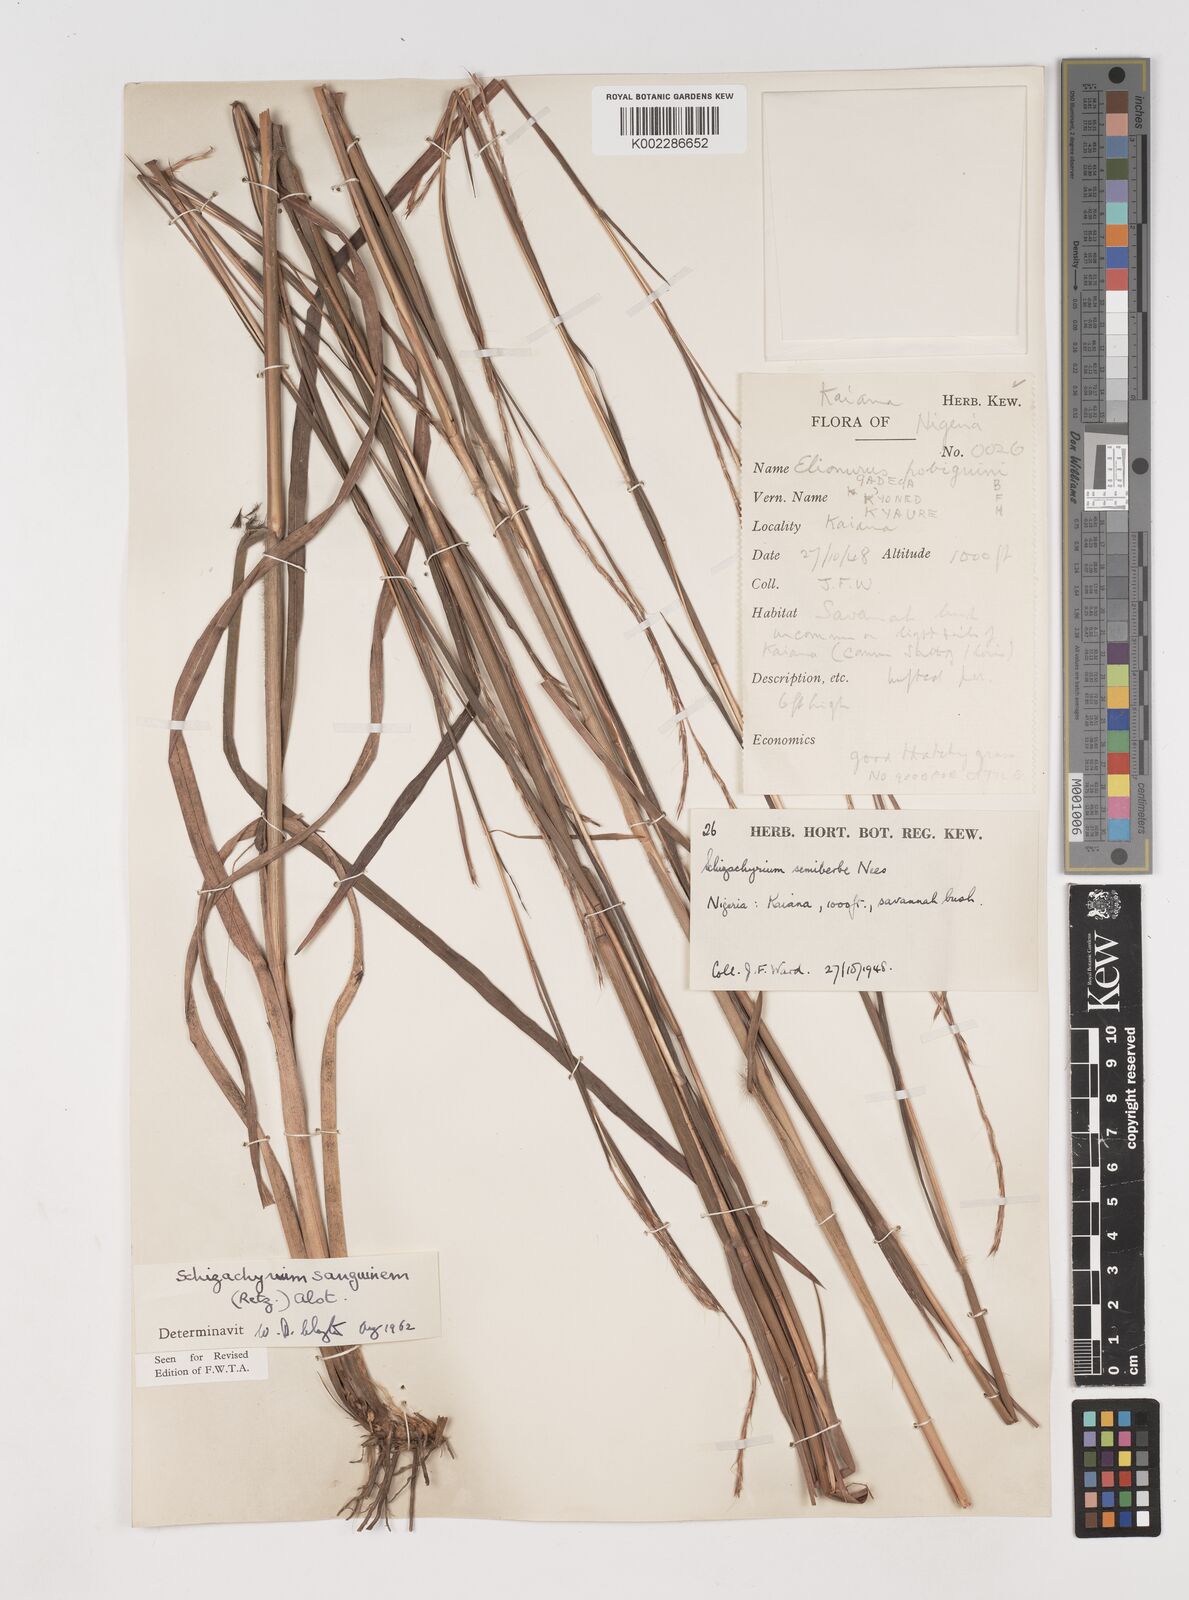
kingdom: Plantae
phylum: Tracheophyta
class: Liliopsida
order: Poales
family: Poaceae
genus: Schizachyrium
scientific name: Schizachyrium sanguineum
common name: Crimson bluestem
